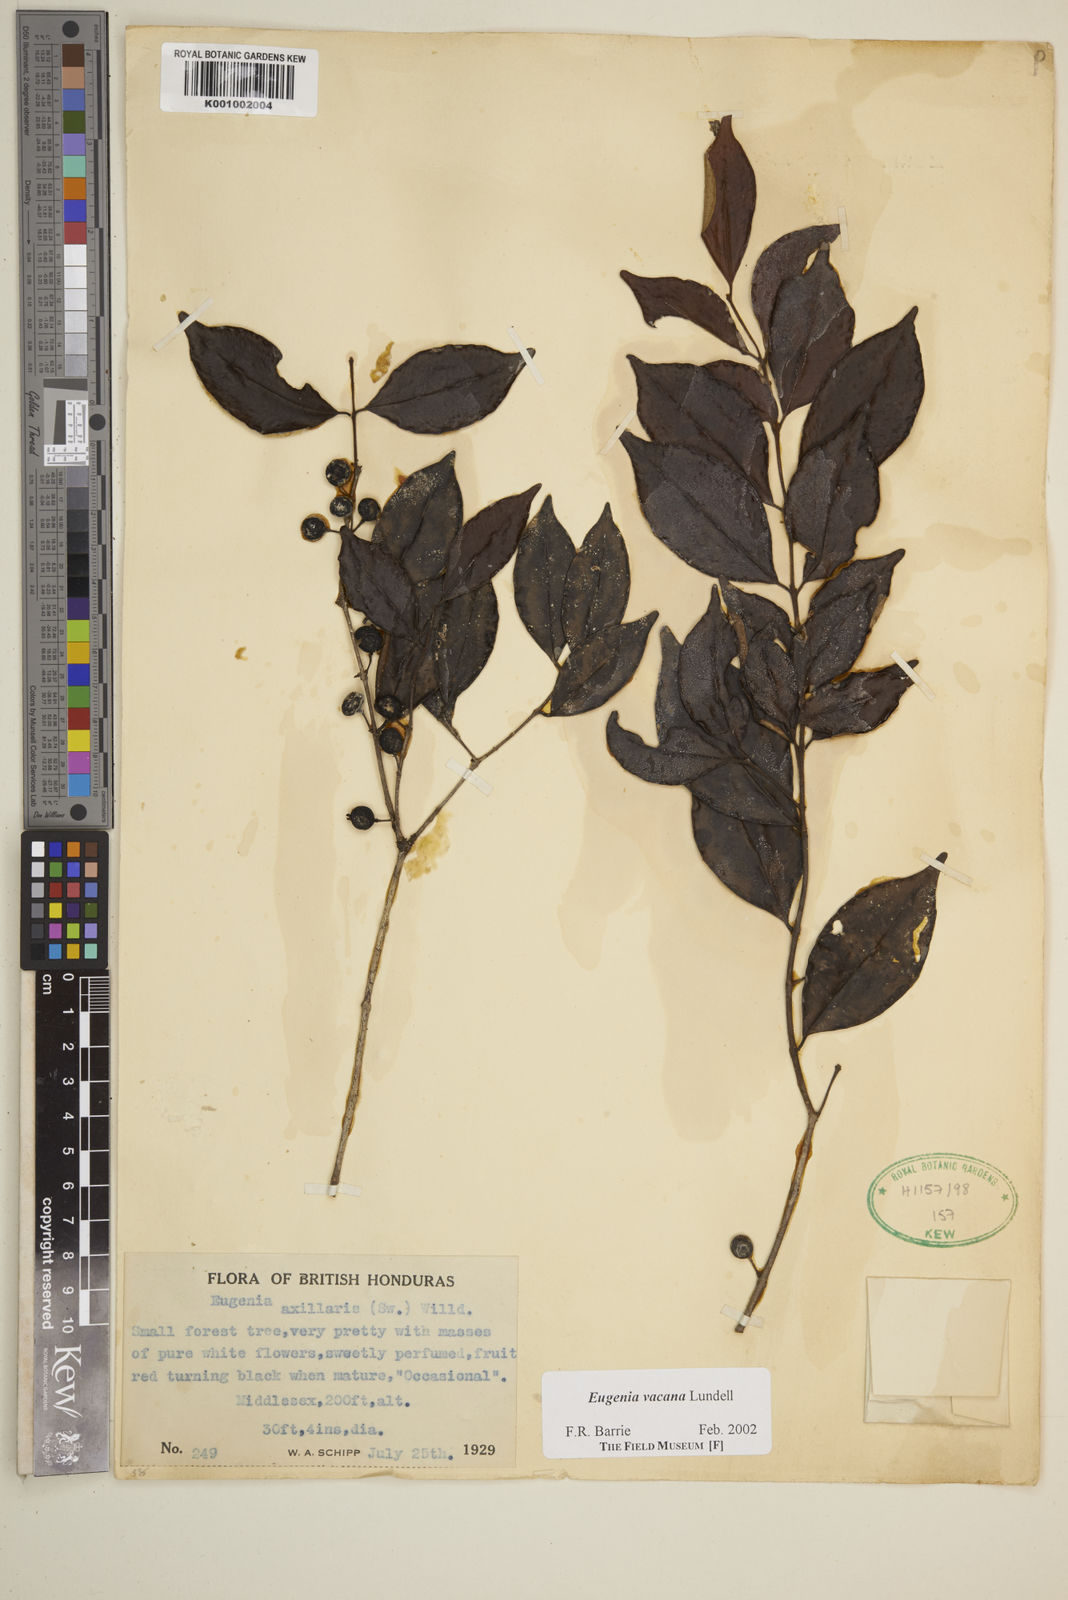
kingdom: Plantae
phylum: Tracheophyta
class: Magnoliopsida
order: Myrtales
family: Myrtaceae
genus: Eugenia
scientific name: Eugenia vacana
